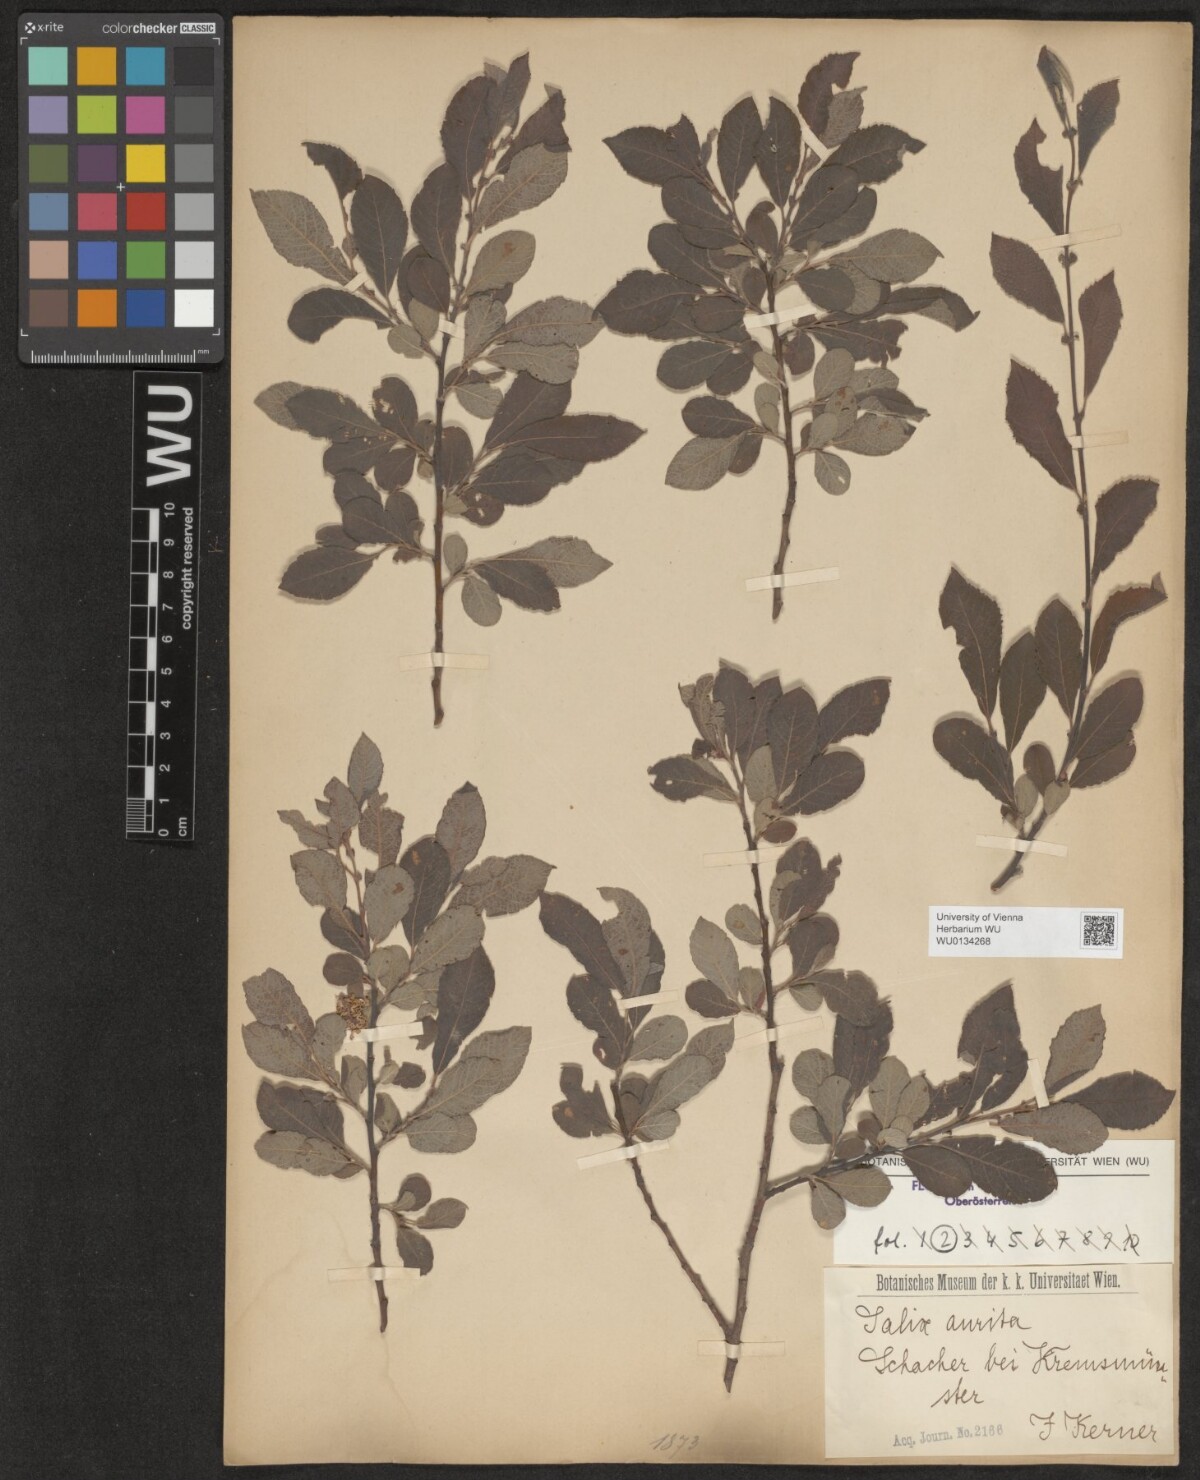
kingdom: Plantae
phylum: Tracheophyta
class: Magnoliopsida
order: Malpighiales
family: Salicaceae
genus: Salix
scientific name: Salix aurita
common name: Eared willow
